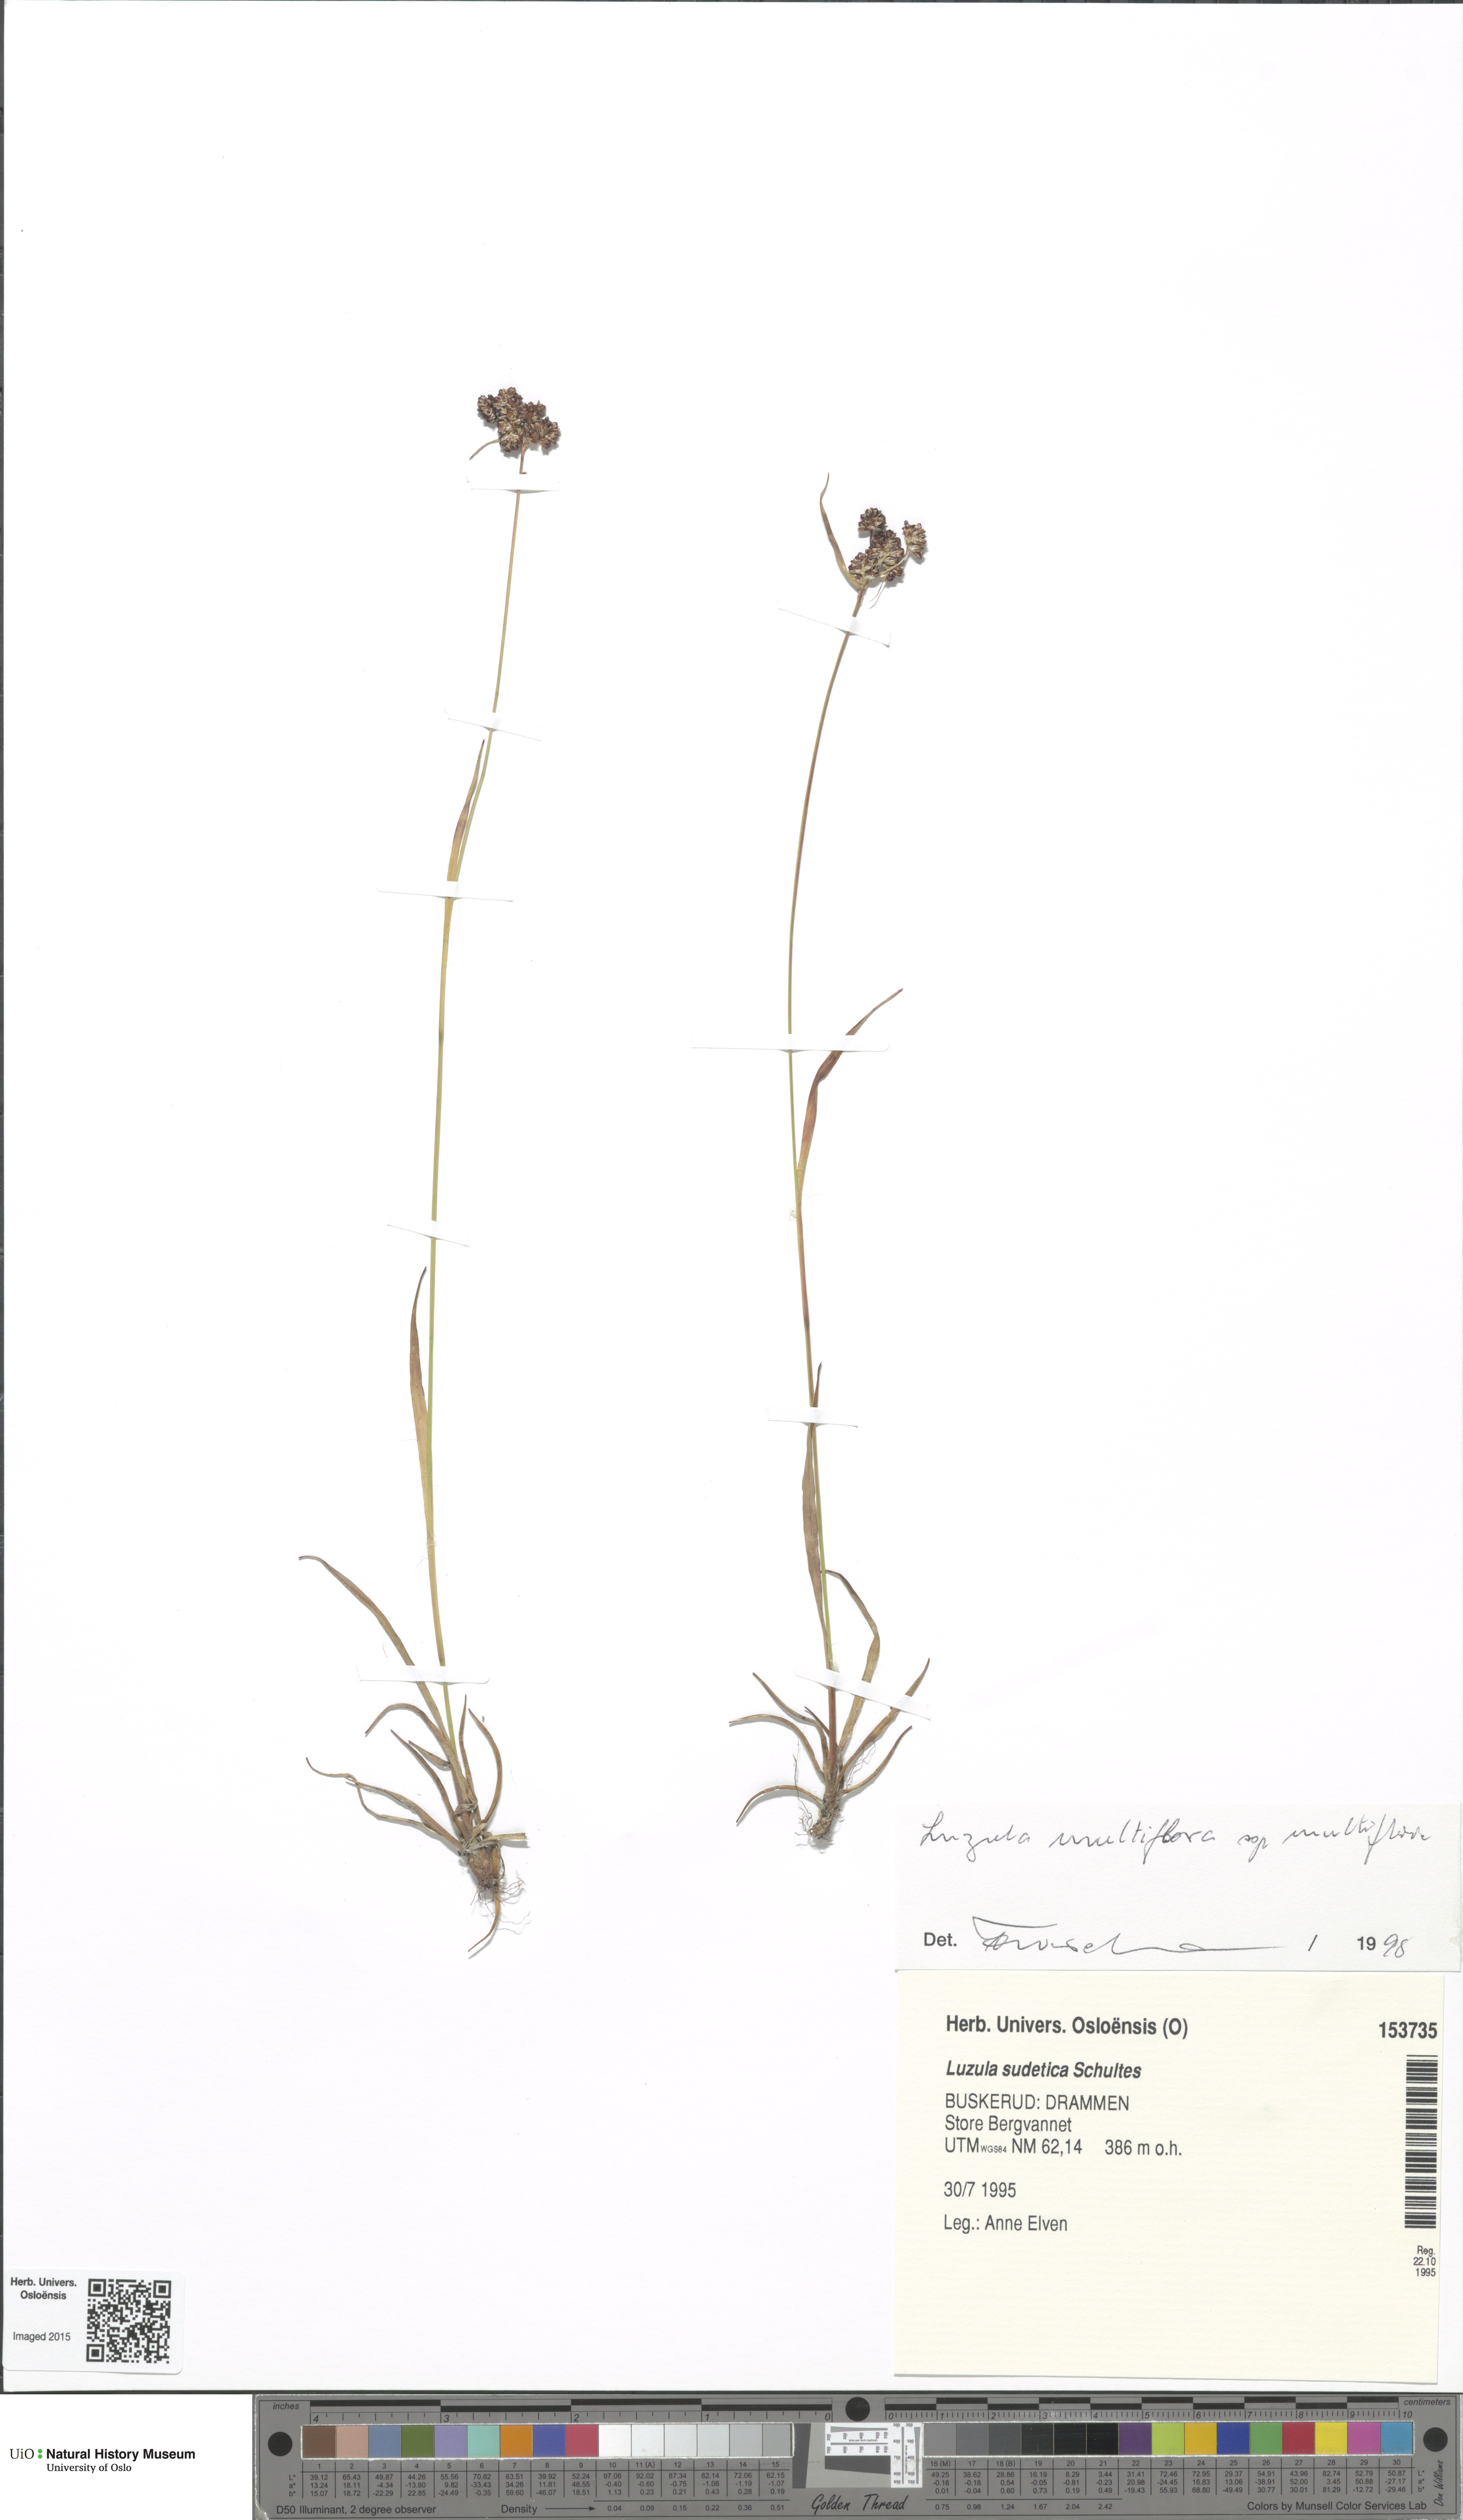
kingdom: Plantae
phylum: Tracheophyta
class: Liliopsida
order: Poales
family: Juncaceae
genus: Luzula
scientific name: Luzula multiflora
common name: Heath wood-rush
